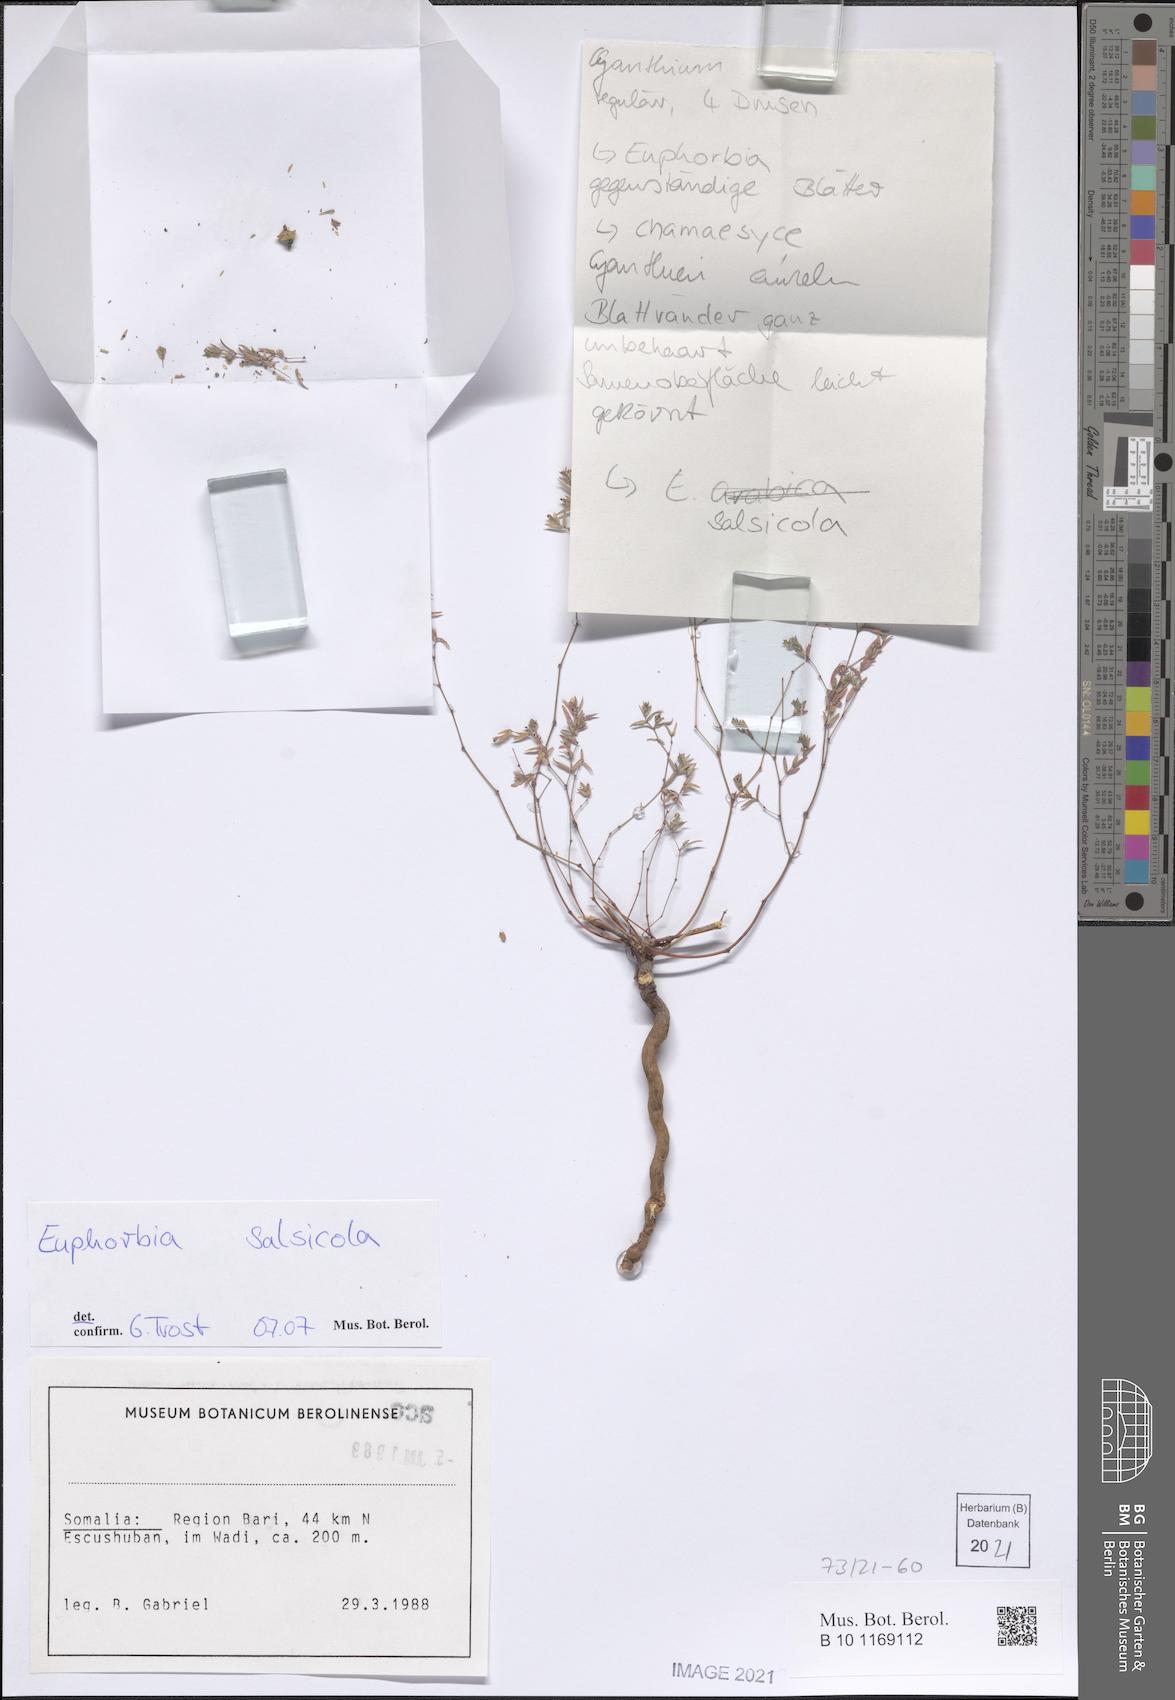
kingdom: Plantae
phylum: Tracheophyta
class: Magnoliopsida
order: Malpighiales
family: Euphorbiaceae
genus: Euphorbia
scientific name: Euphorbia arabica
